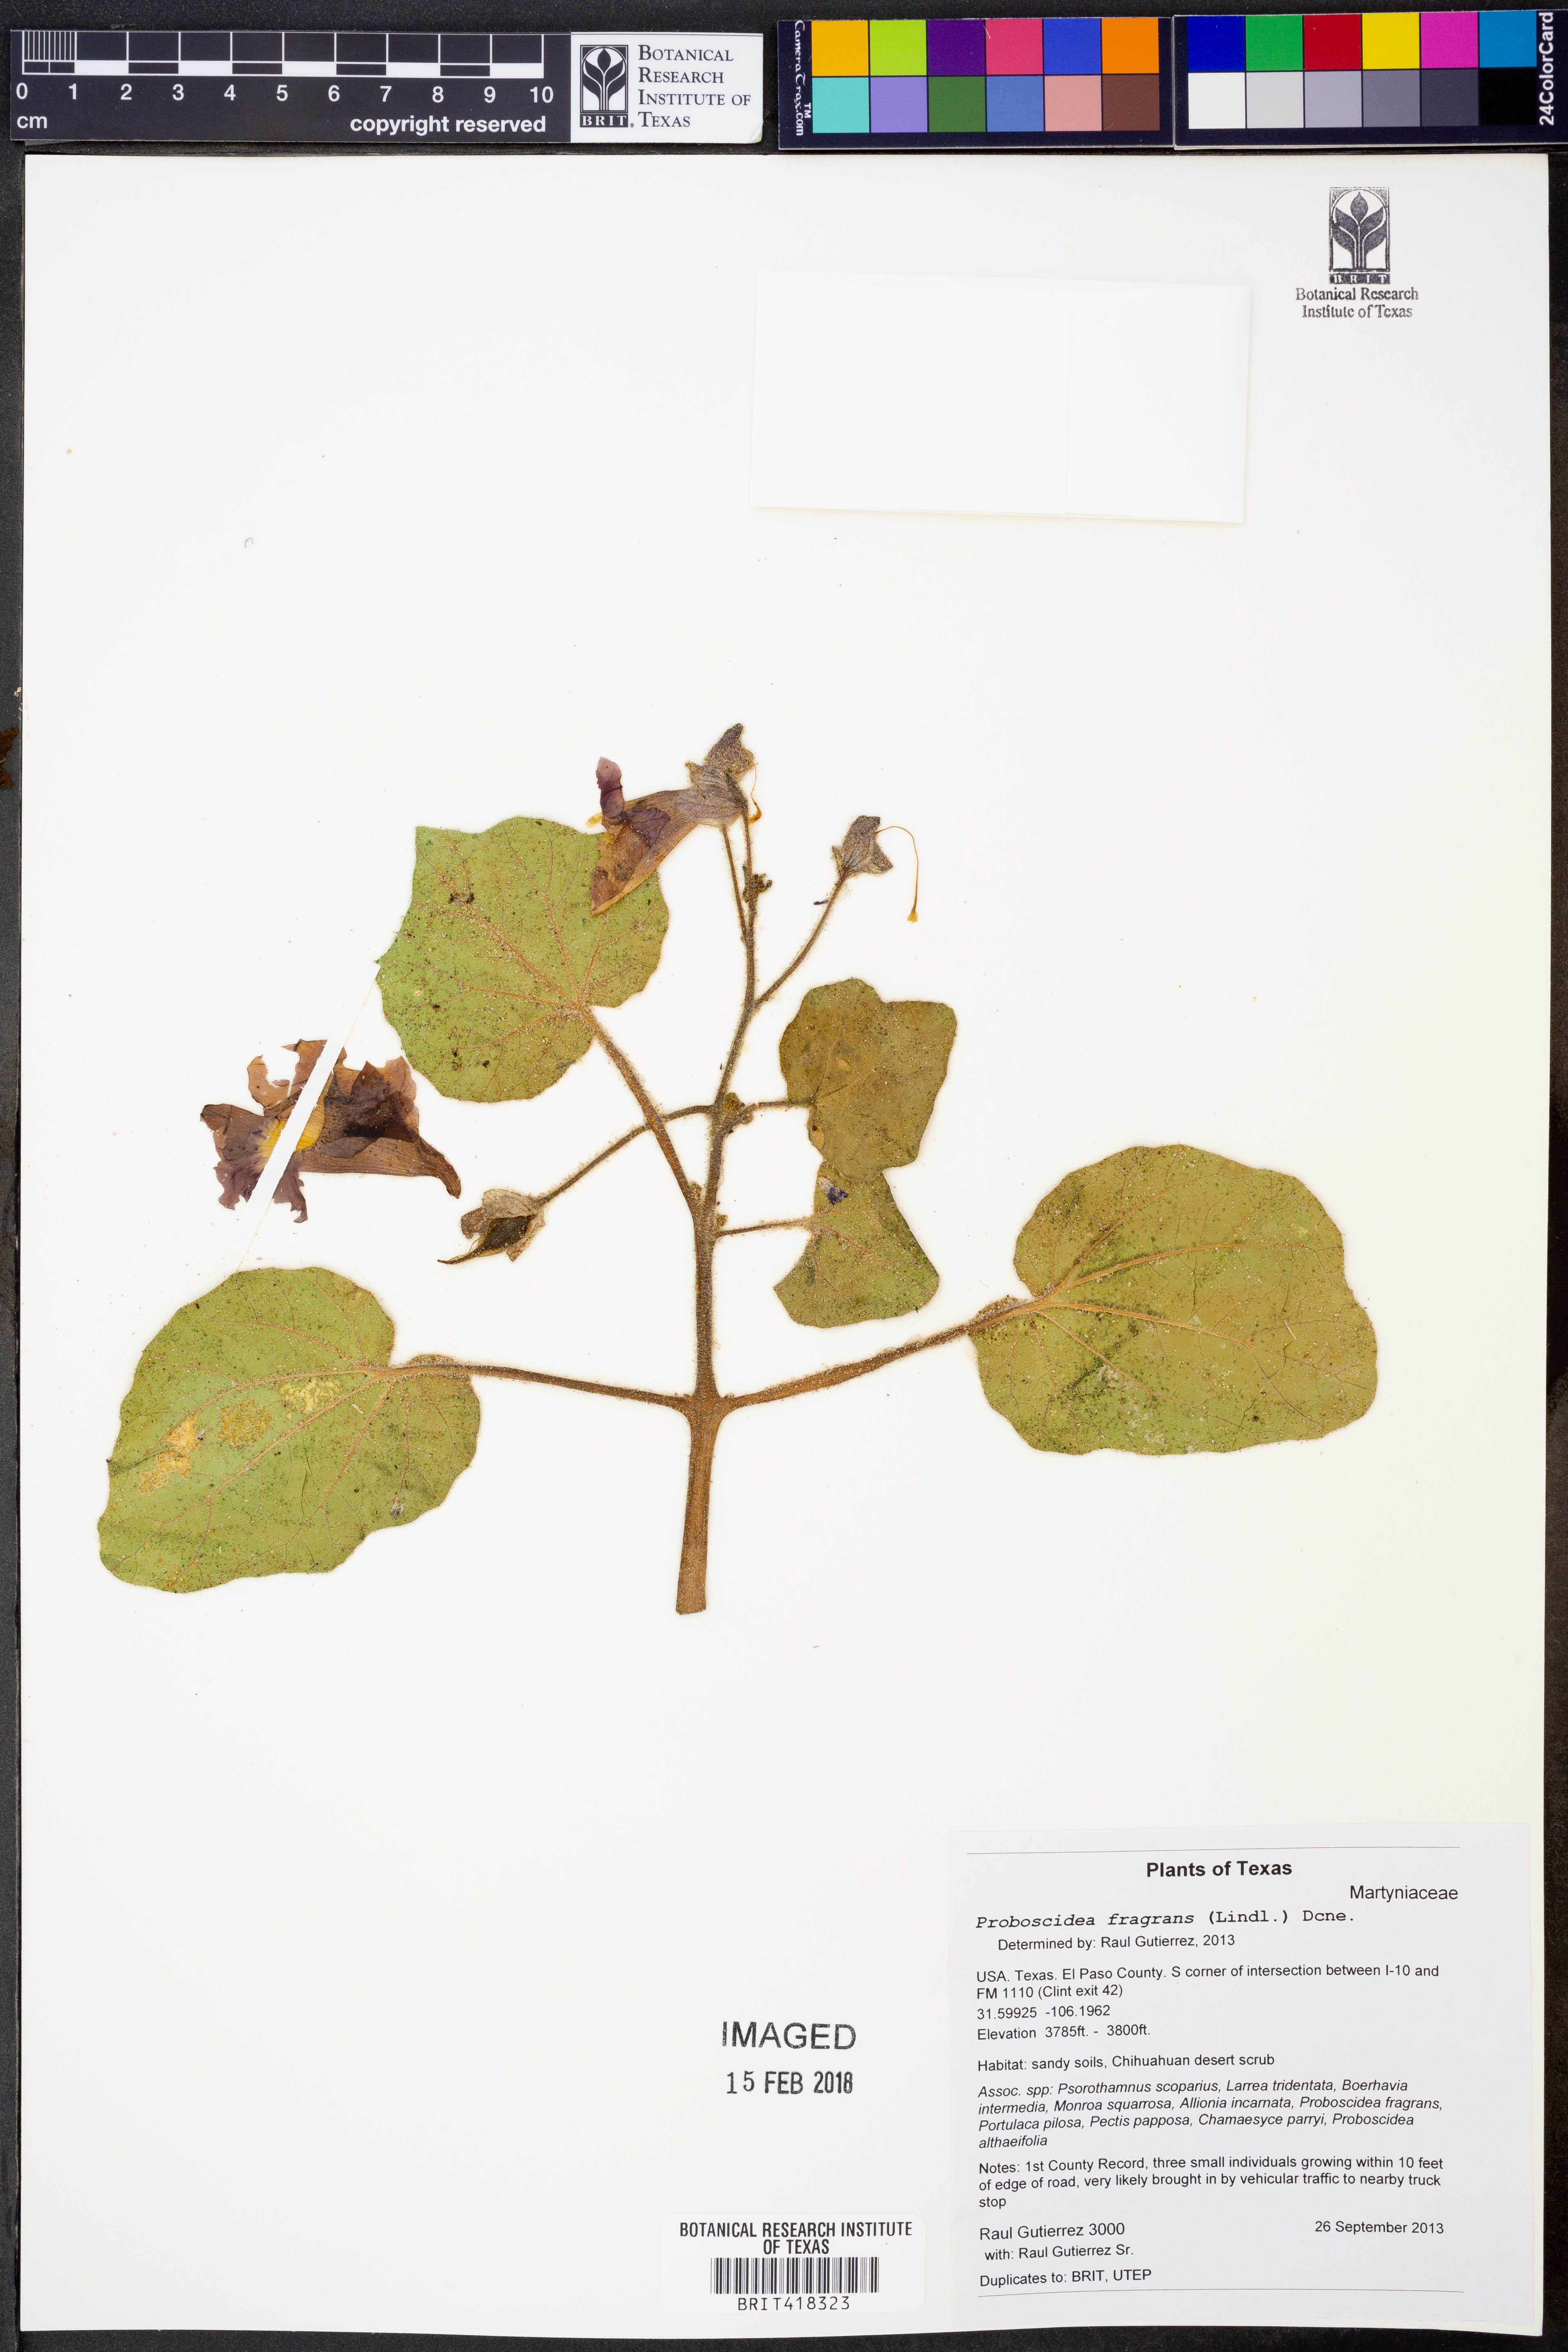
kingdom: Plantae
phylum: Tracheophyta
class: Magnoliopsida
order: Lamiales
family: Martyniaceae
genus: Proboscidea
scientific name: Proboscidea louisianica
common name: Elephant tusks
